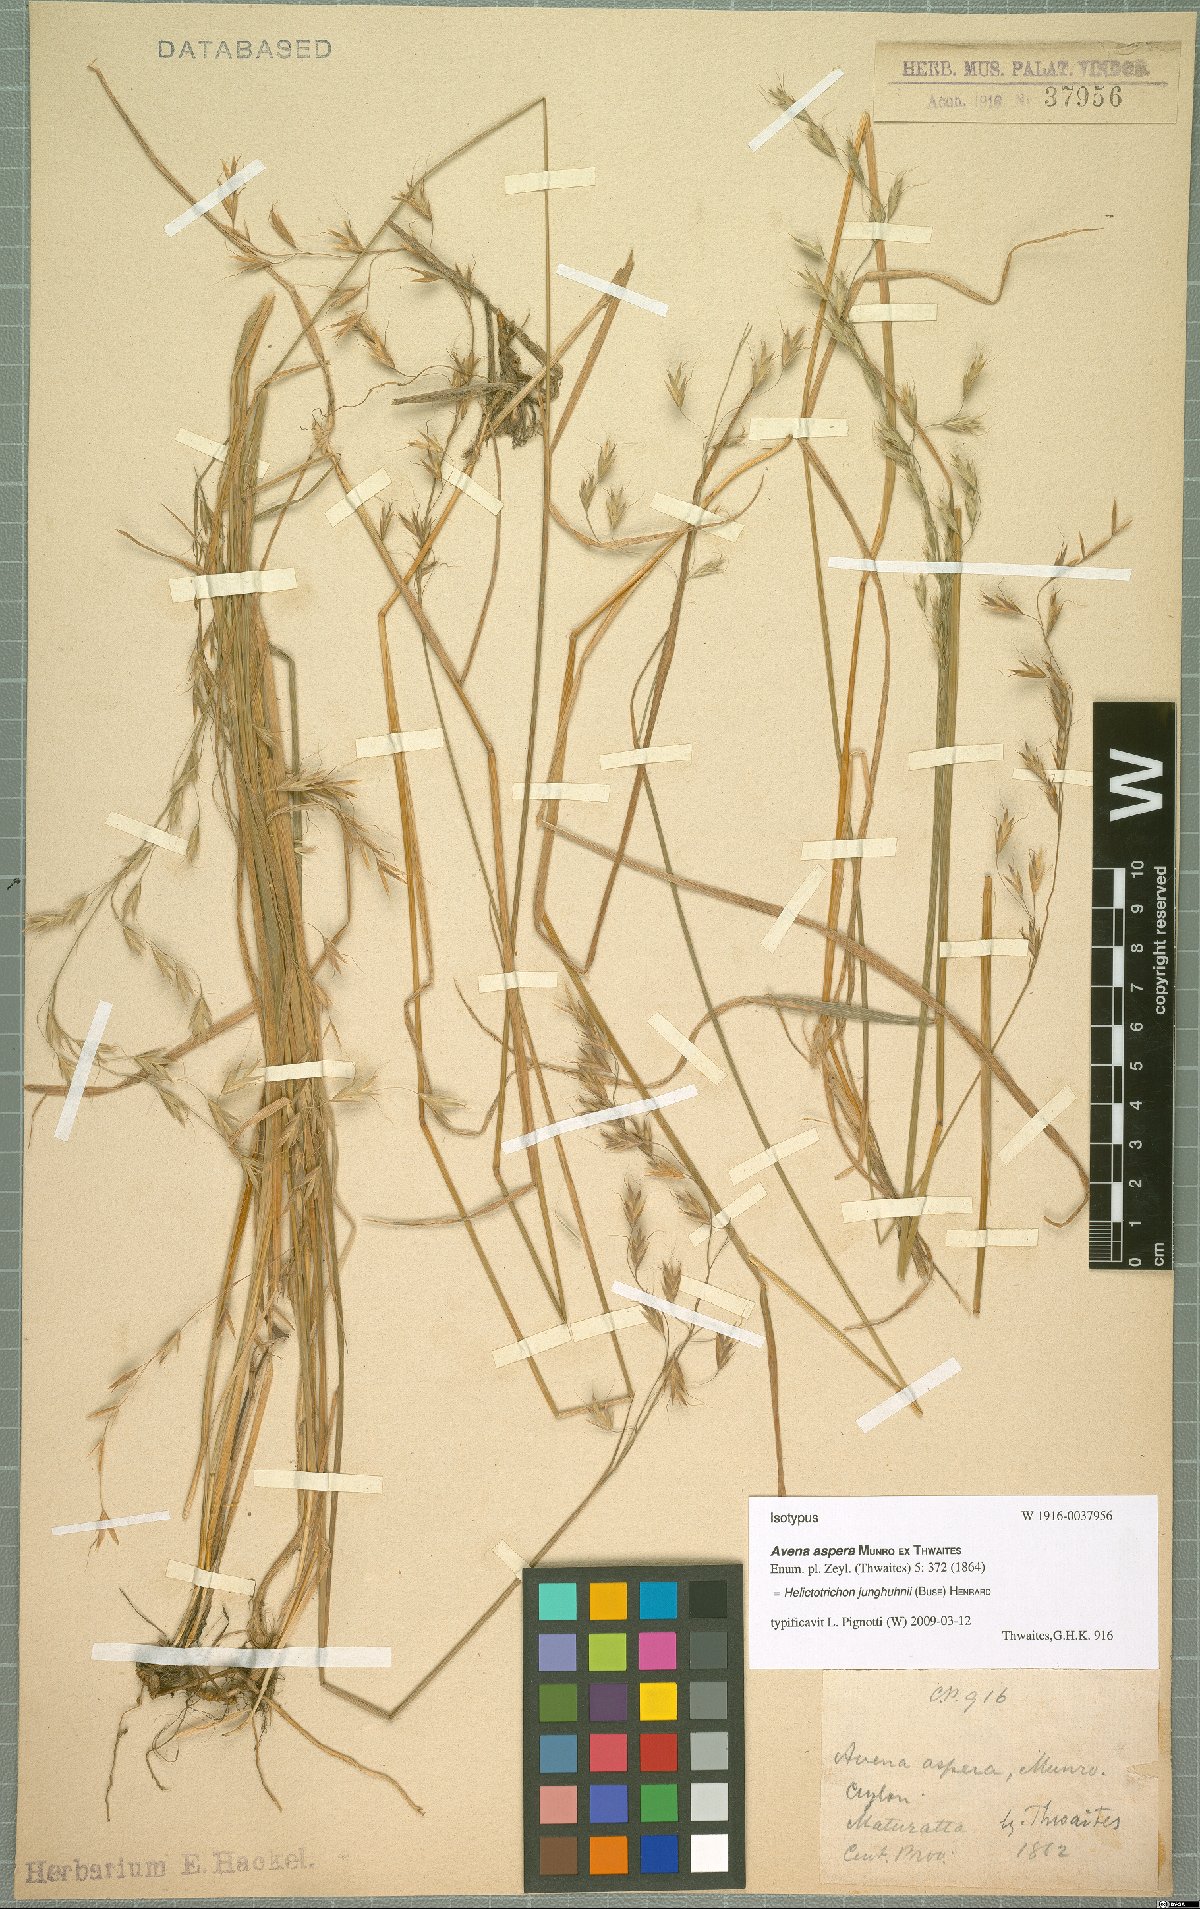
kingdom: Plantae
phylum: Tracheophyta
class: Liliopsida
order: Poales
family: Poaceae
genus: Trisetopsis
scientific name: Trisetopsis junghuhnii
